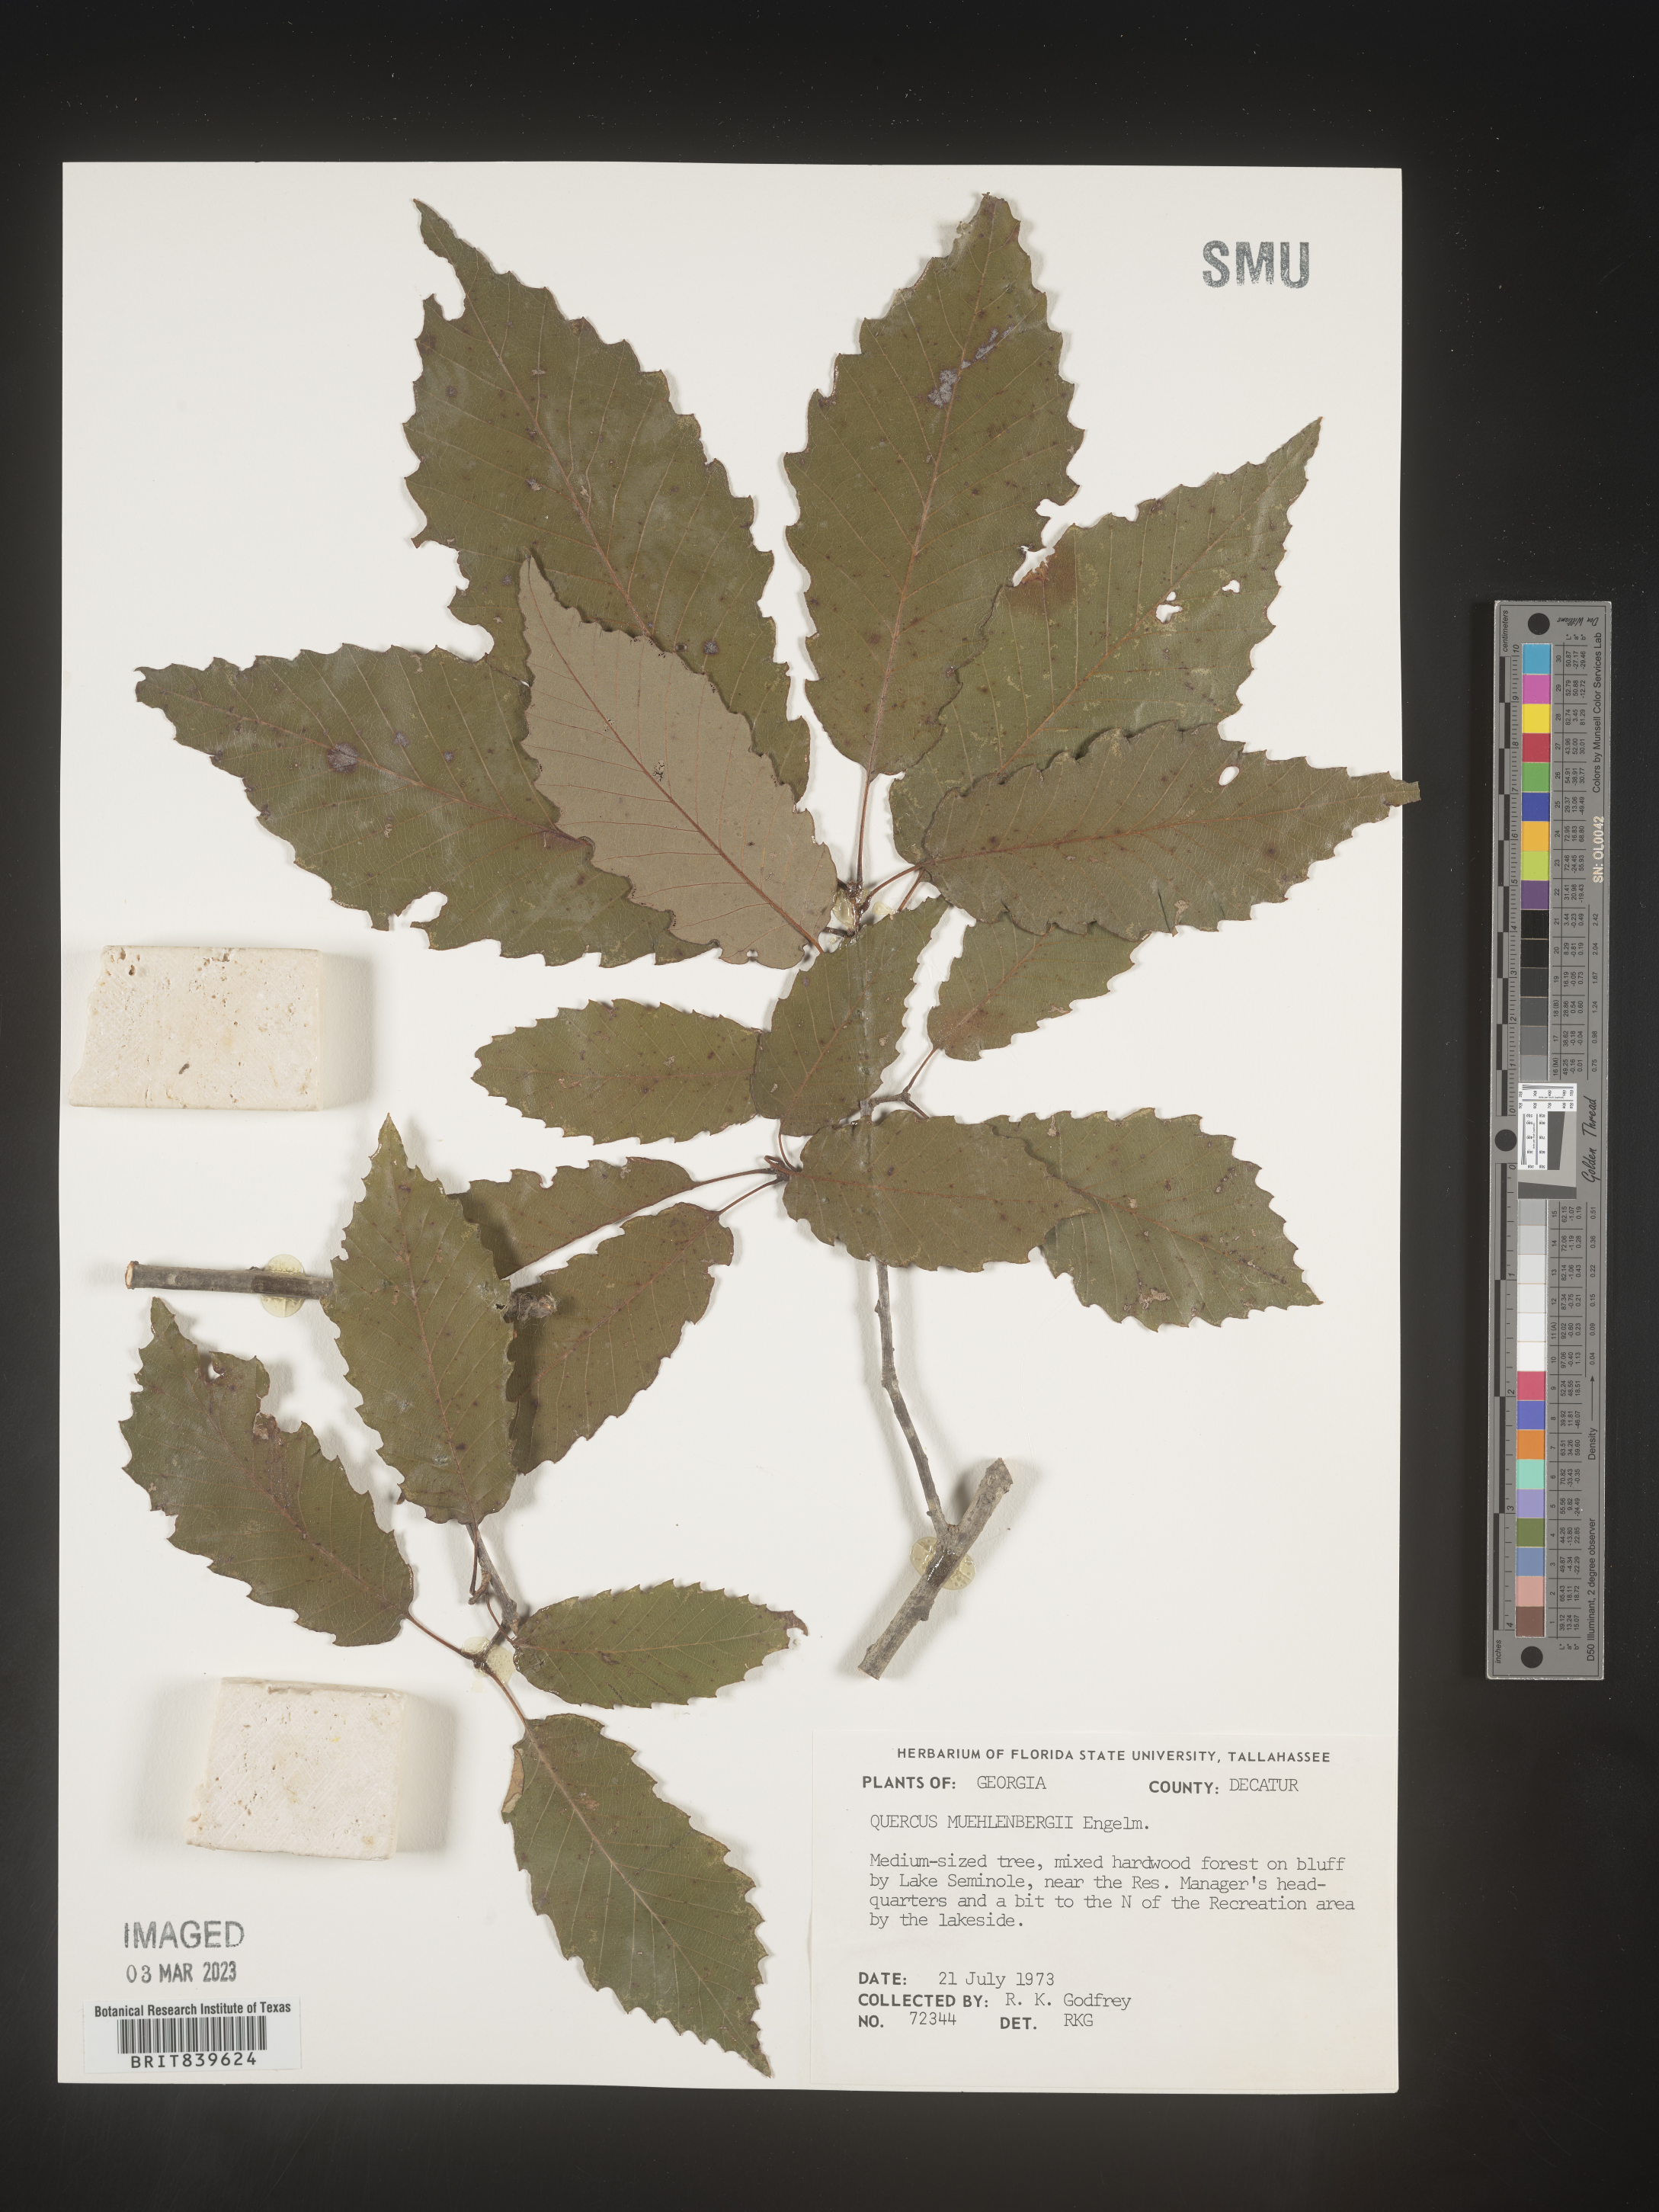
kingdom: Plantae
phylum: Tracheophyta
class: Magnoliopsida
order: Fagales
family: Fagaceae
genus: Quercus
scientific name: Quercus muehlenbergii
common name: Chinkapin oak
